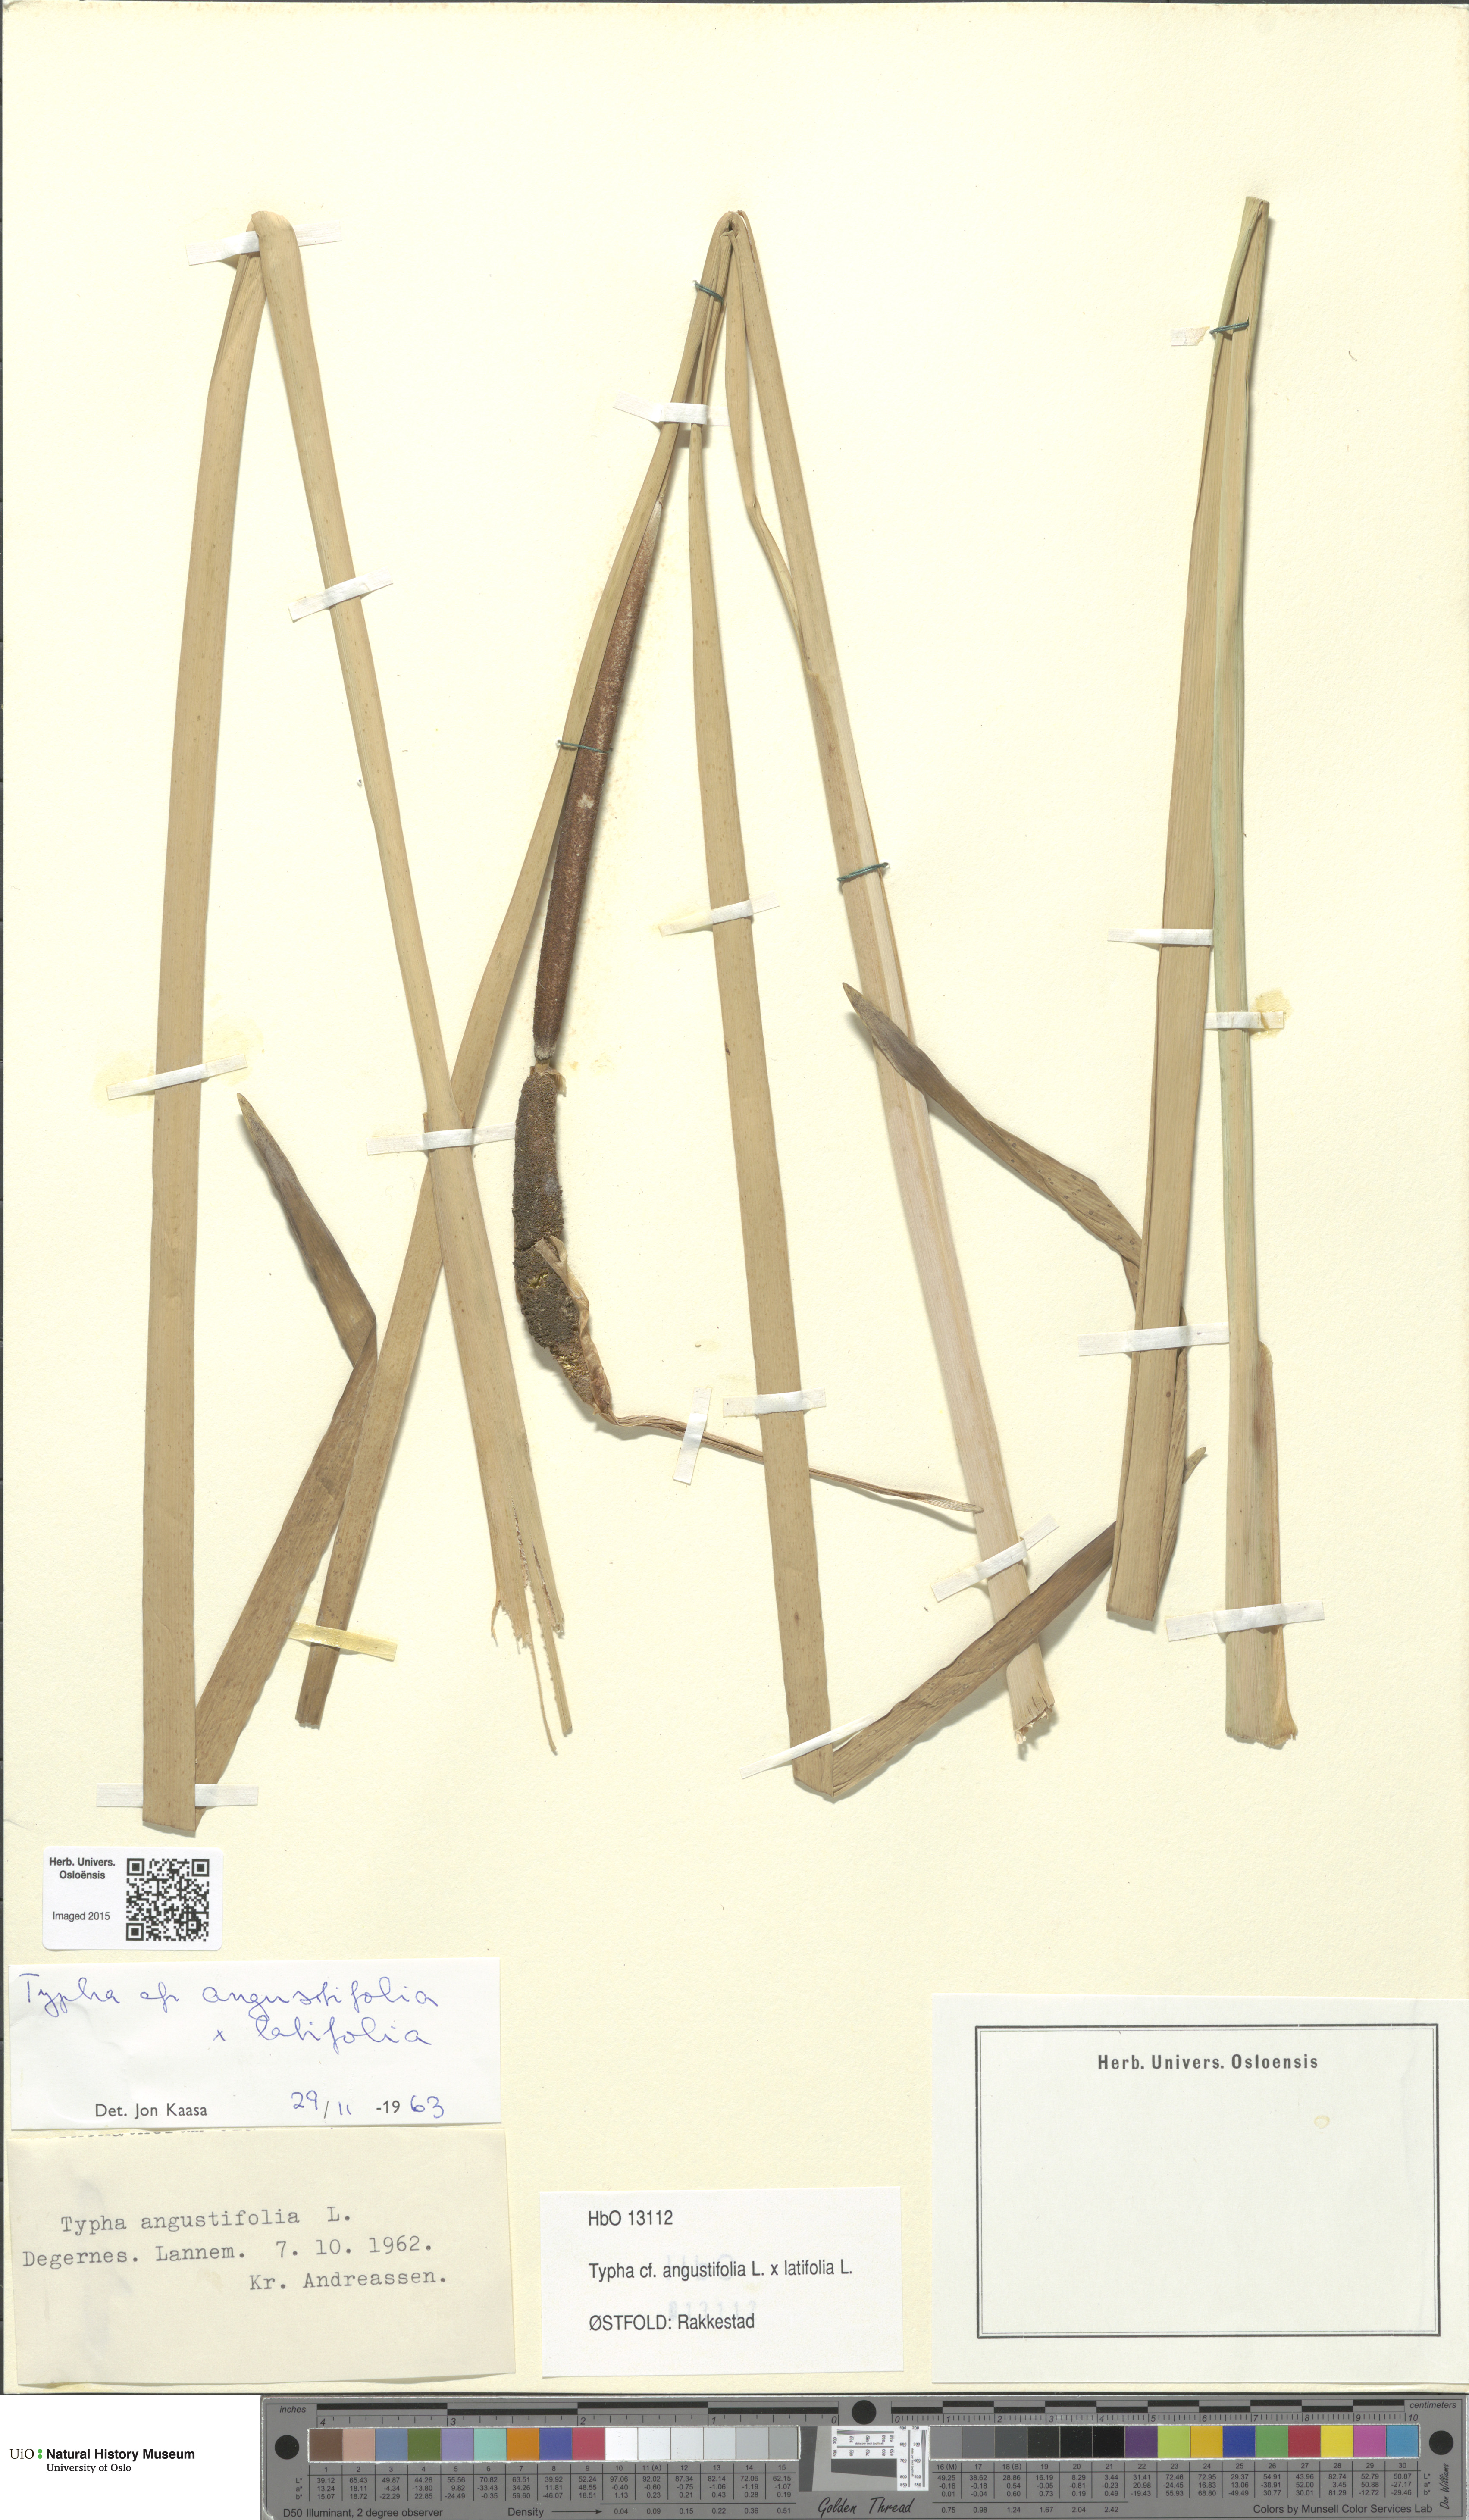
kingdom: Plantae
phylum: Tracheophyta
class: Liliopsida
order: Poales
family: Typhaceae
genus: Typha
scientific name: Typha
